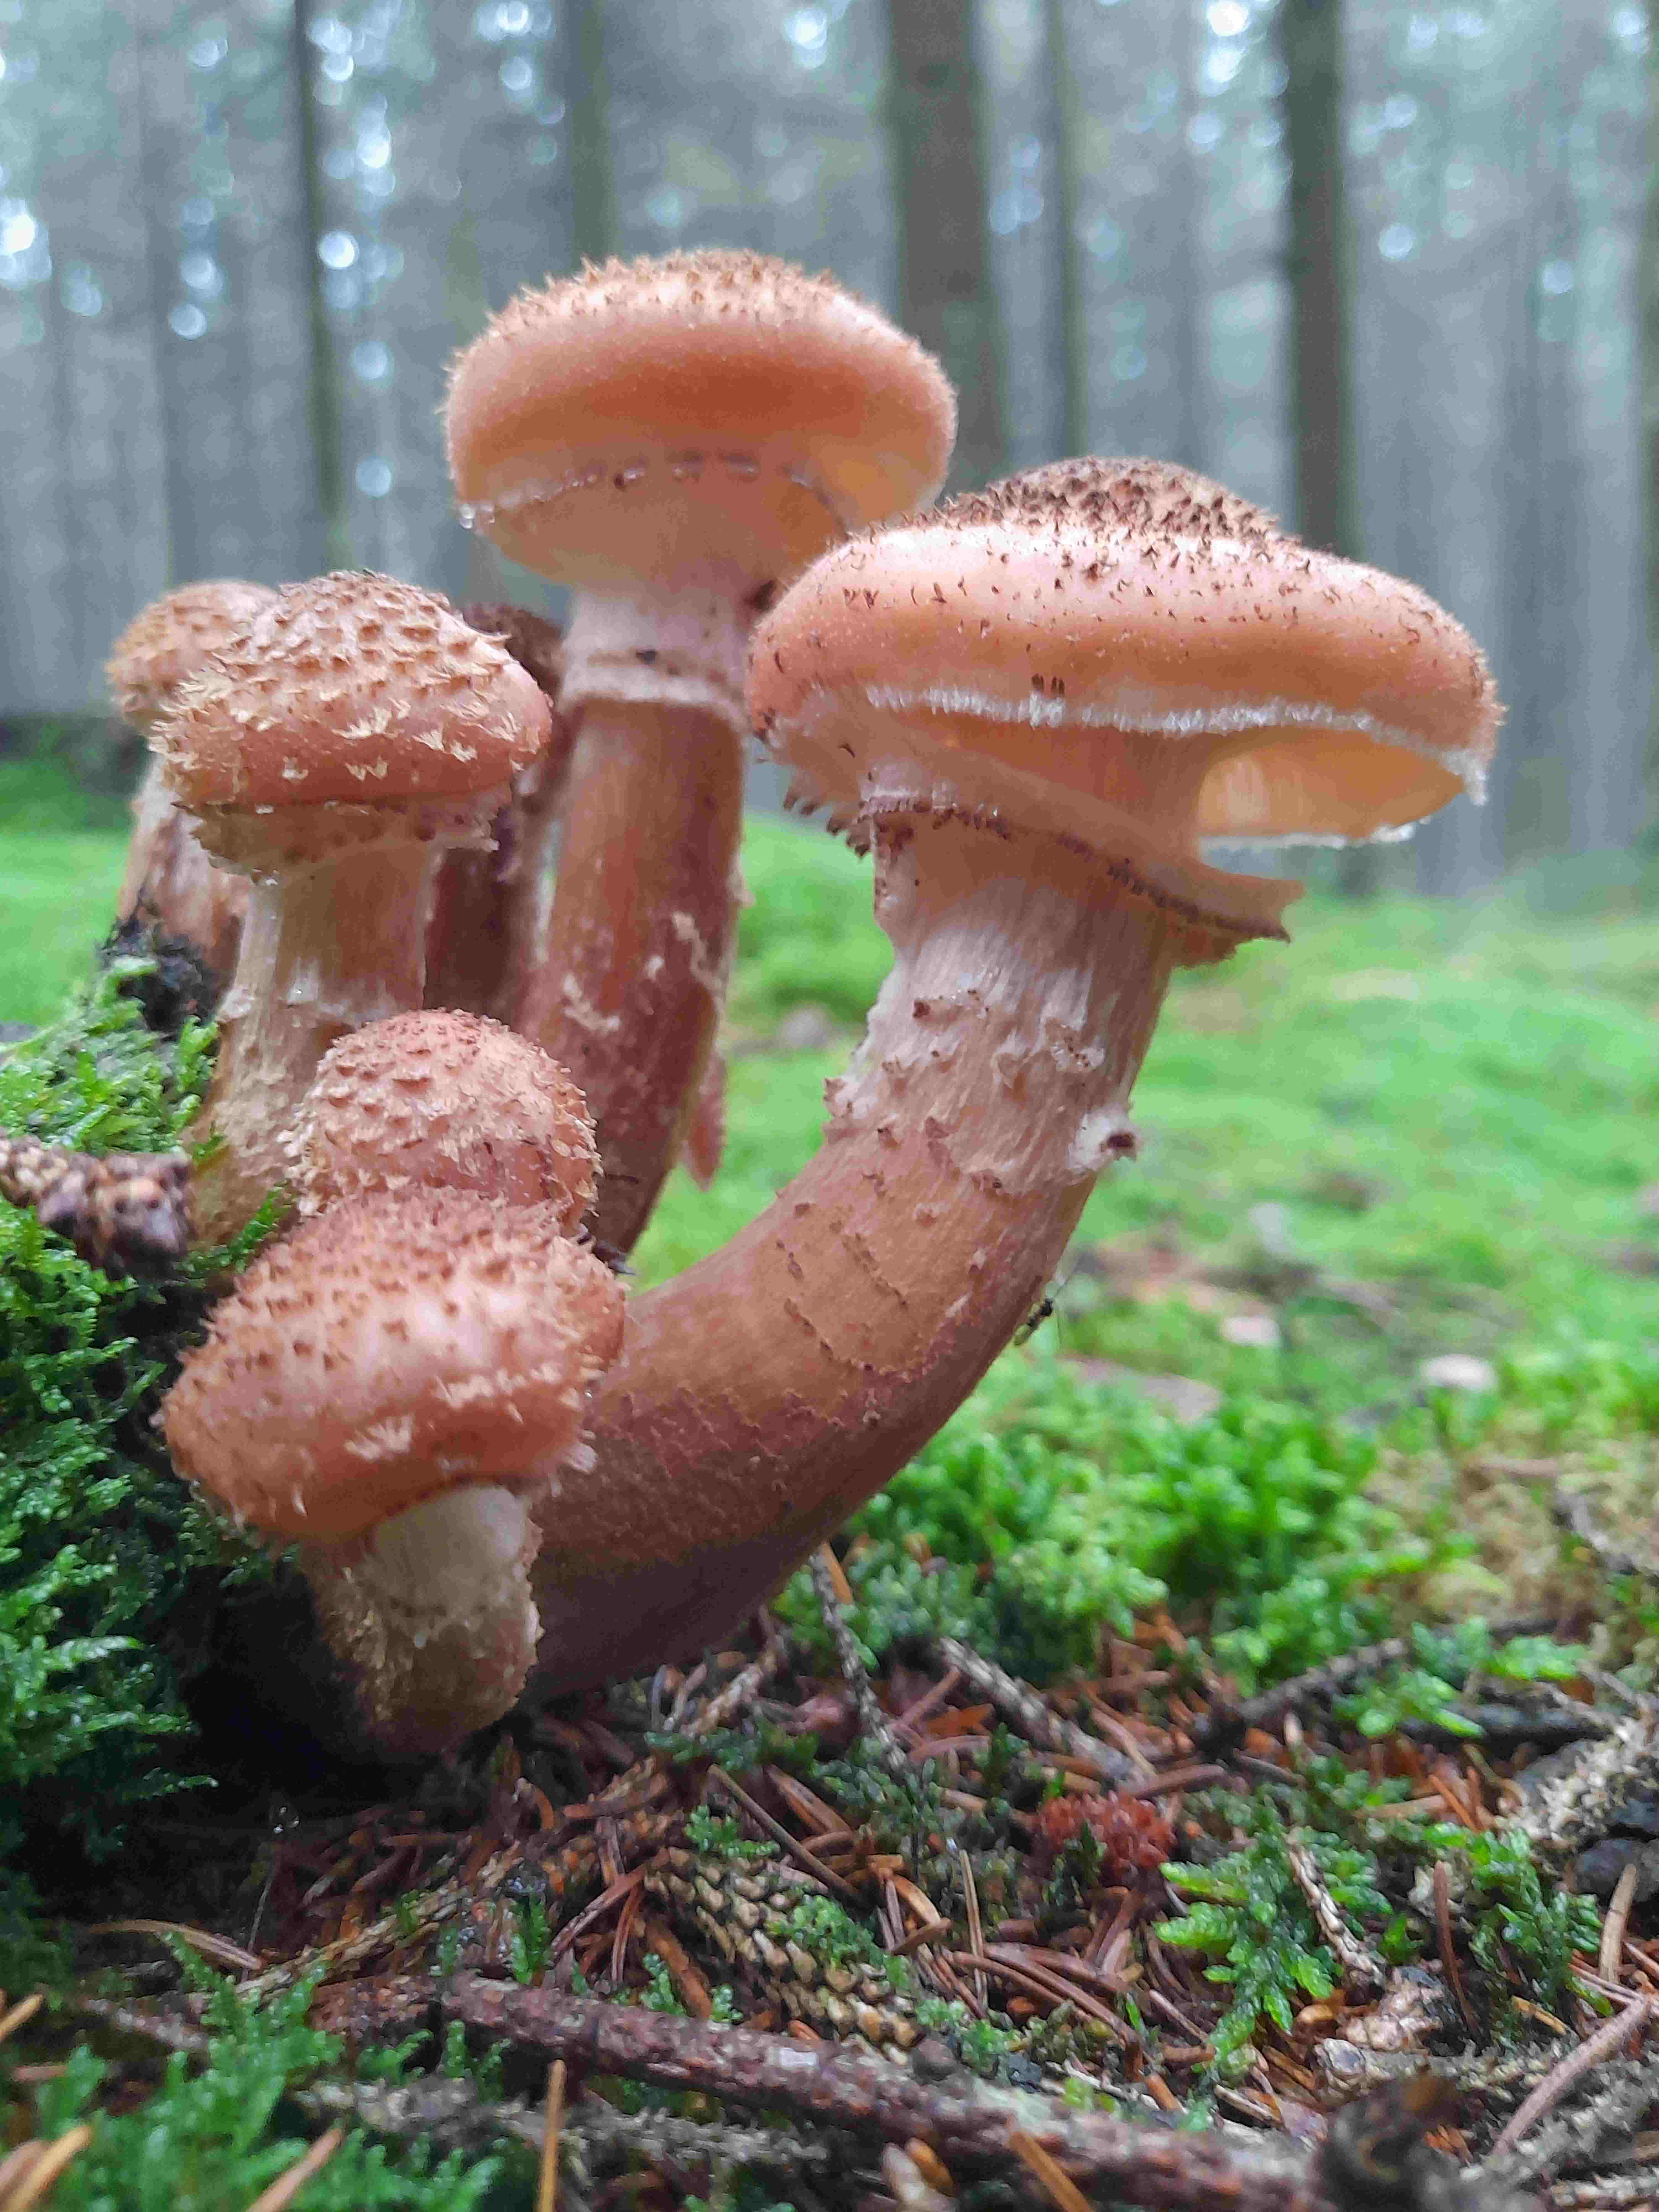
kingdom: Fungi
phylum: Basidiomycota
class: Agaricomycetes
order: Agaricales
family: Physalacriaceae
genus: Armillaria
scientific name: Armillaria ostoyae
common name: mørk honningsvamp
